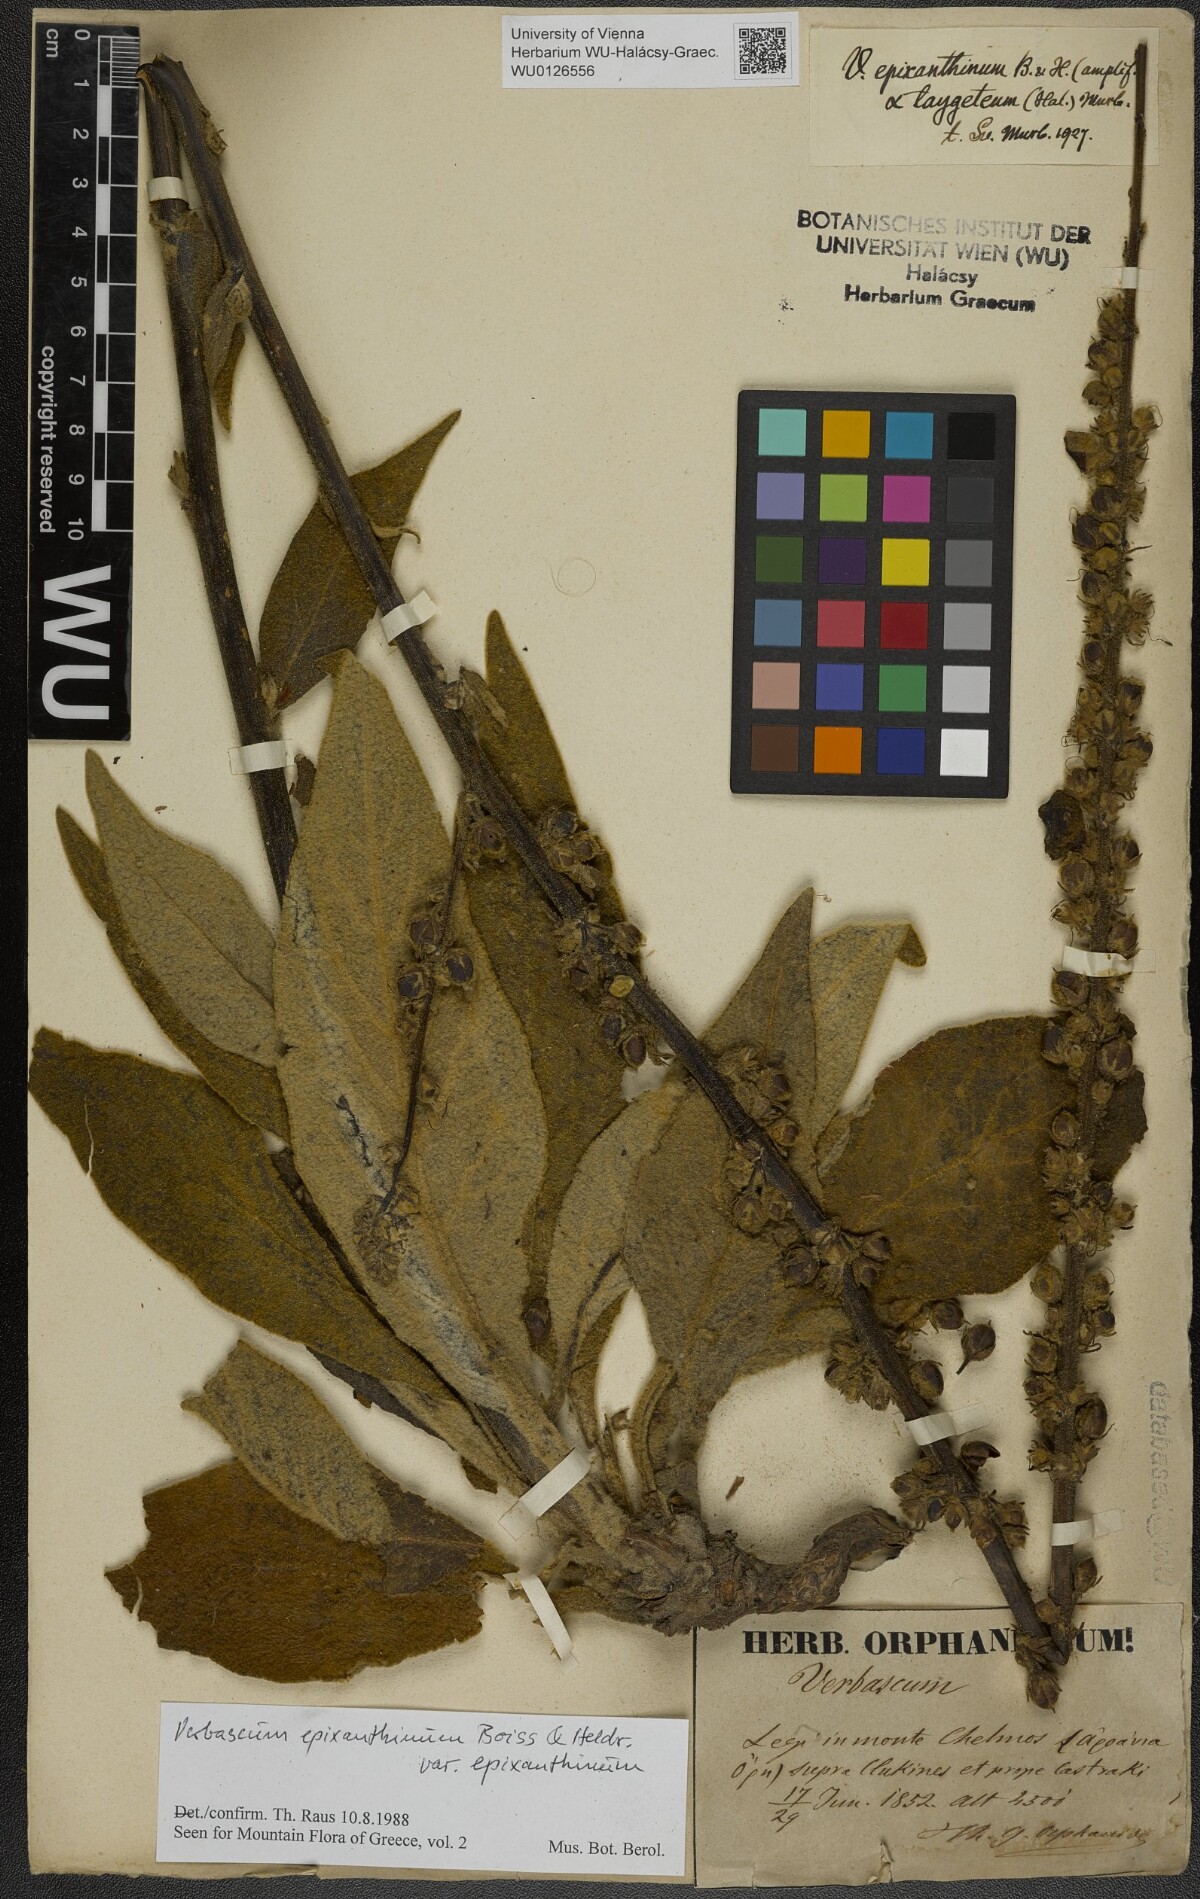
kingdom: Plantae
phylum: Tracheophyta
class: Magnoliopsida
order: Lamiales
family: Scrophulariaceae
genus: Verbascum
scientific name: Verbascum epixanthinum
